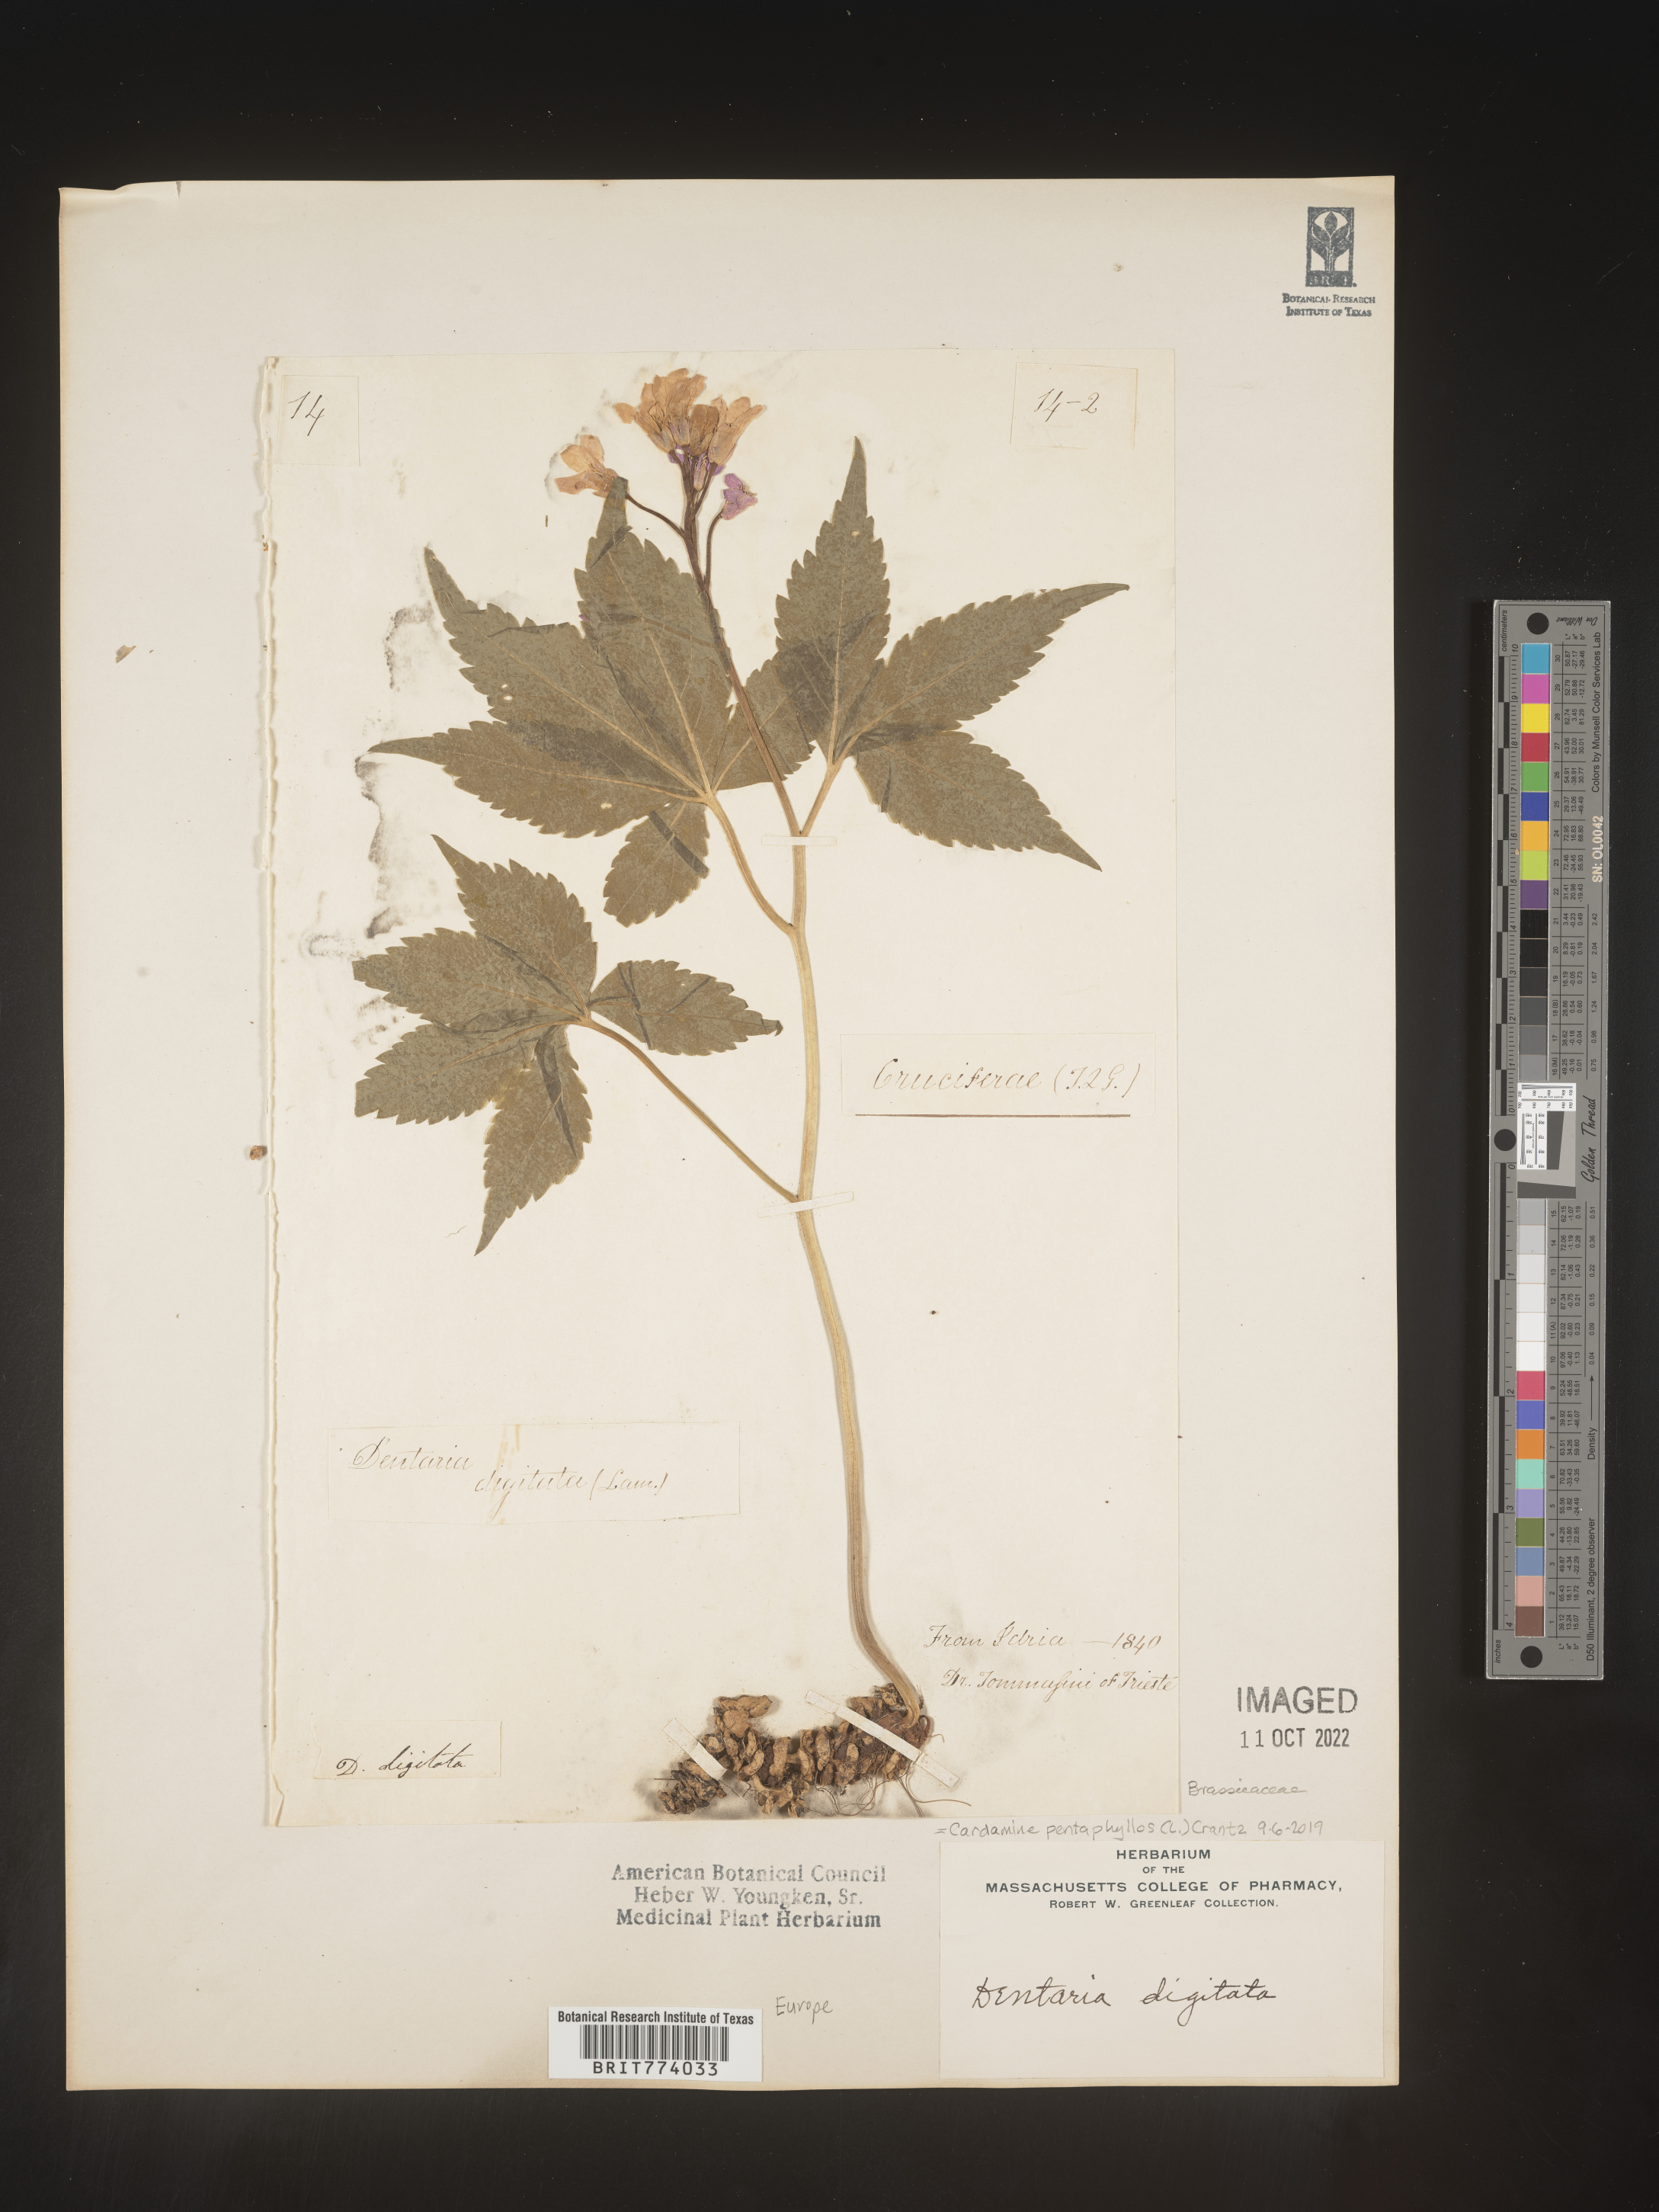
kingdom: Plantae
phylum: Tracheophyta
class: Magnoliopsida
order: Brassicales
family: Brassicaceae
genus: Cardamine
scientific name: Cardamine
